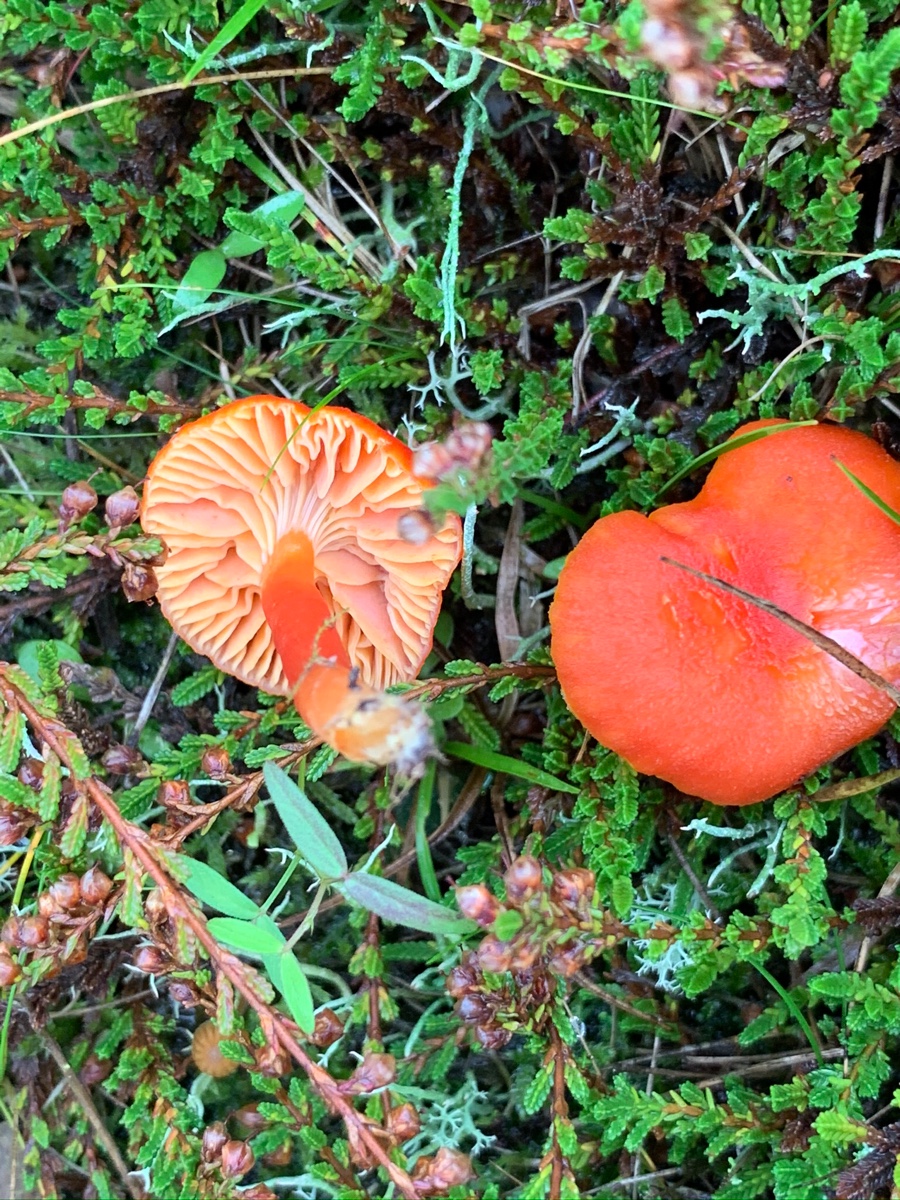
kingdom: Fungi
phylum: Basidiomycota
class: Agaricomycetes
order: Agaricales
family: Hygrophoraceae
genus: Hygrocybe
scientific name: Hygrocybe miniata
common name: mønje-vokshat
